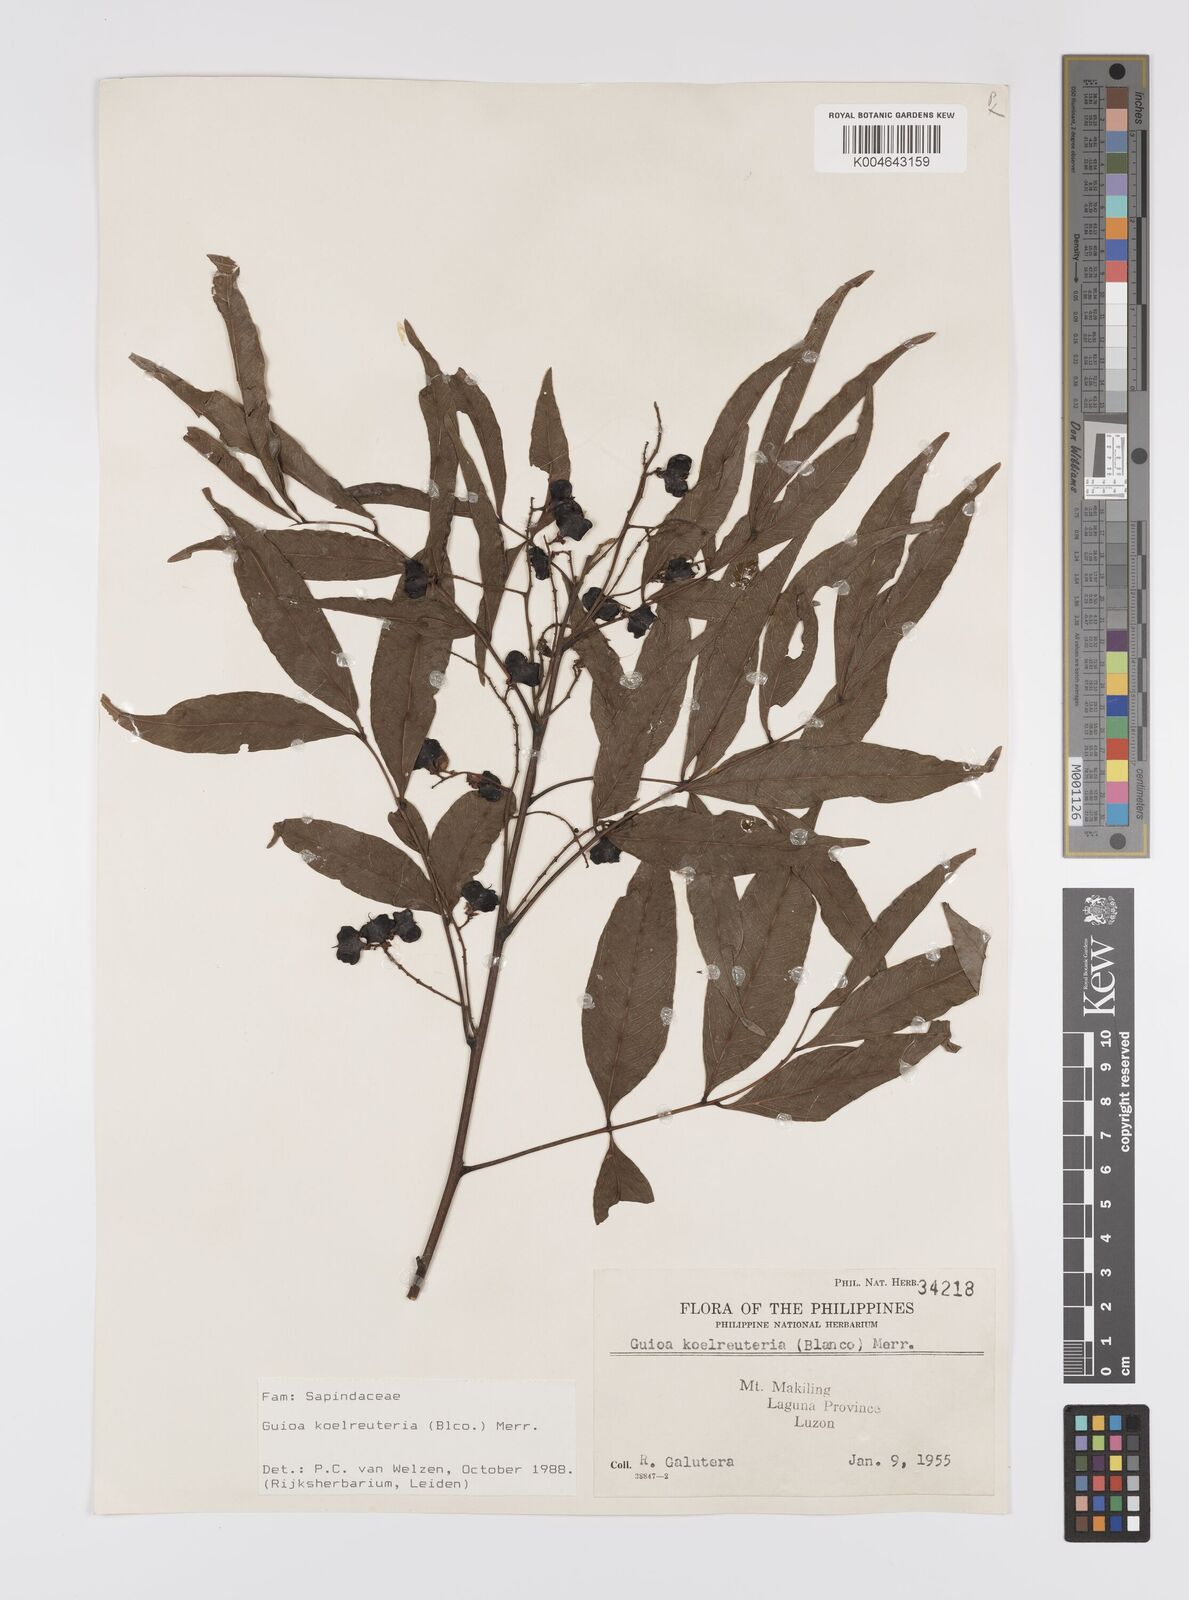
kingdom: Plantae
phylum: Tracheophyta
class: Magnoliopsida
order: Sapindales
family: Sapindaceae
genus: Guioa
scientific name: Guioa koelreuteria
